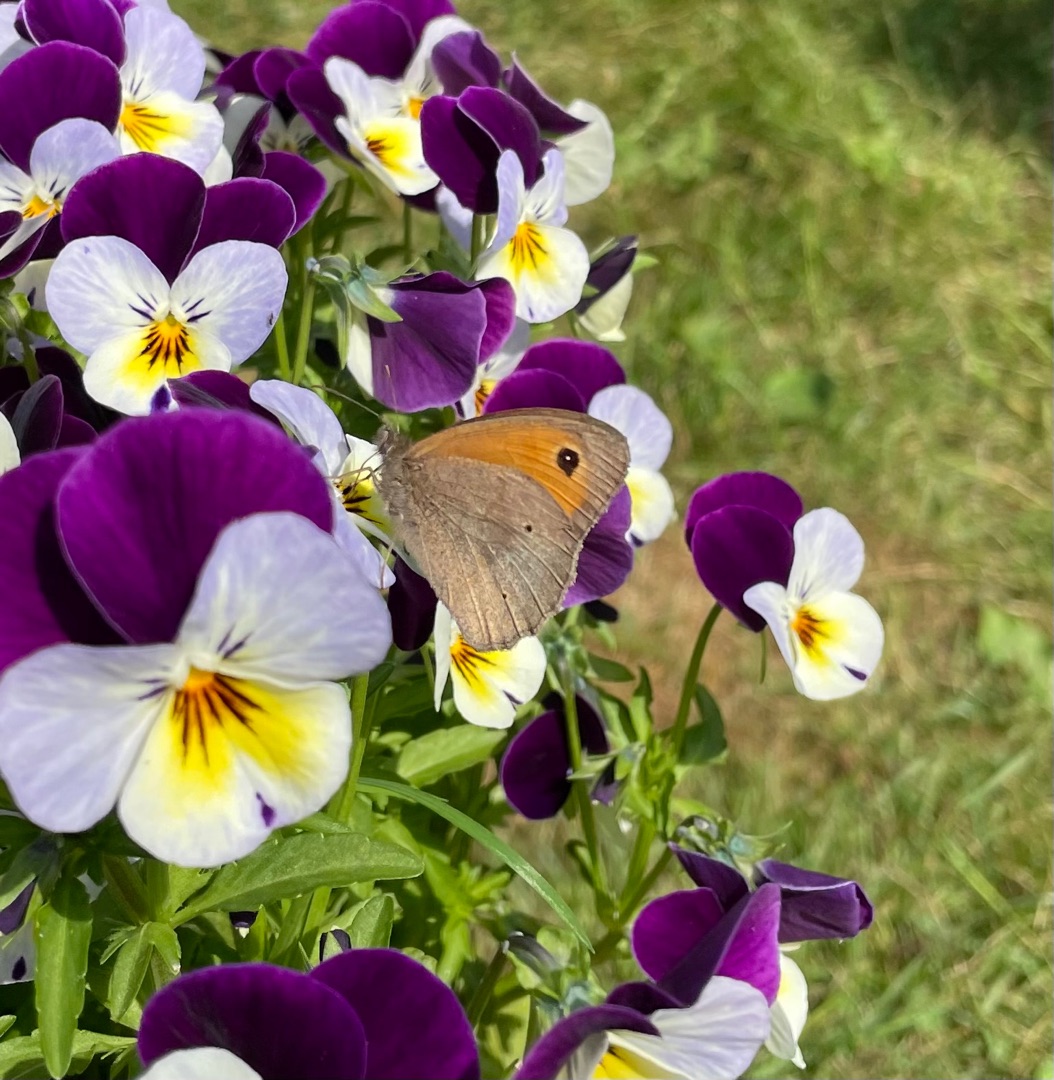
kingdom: Animalia
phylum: Arthropoda
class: Insecta
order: Lepidoptera
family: Nymphalidae
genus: Maniola
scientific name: Maniola jurtina
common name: Græsrandøje
